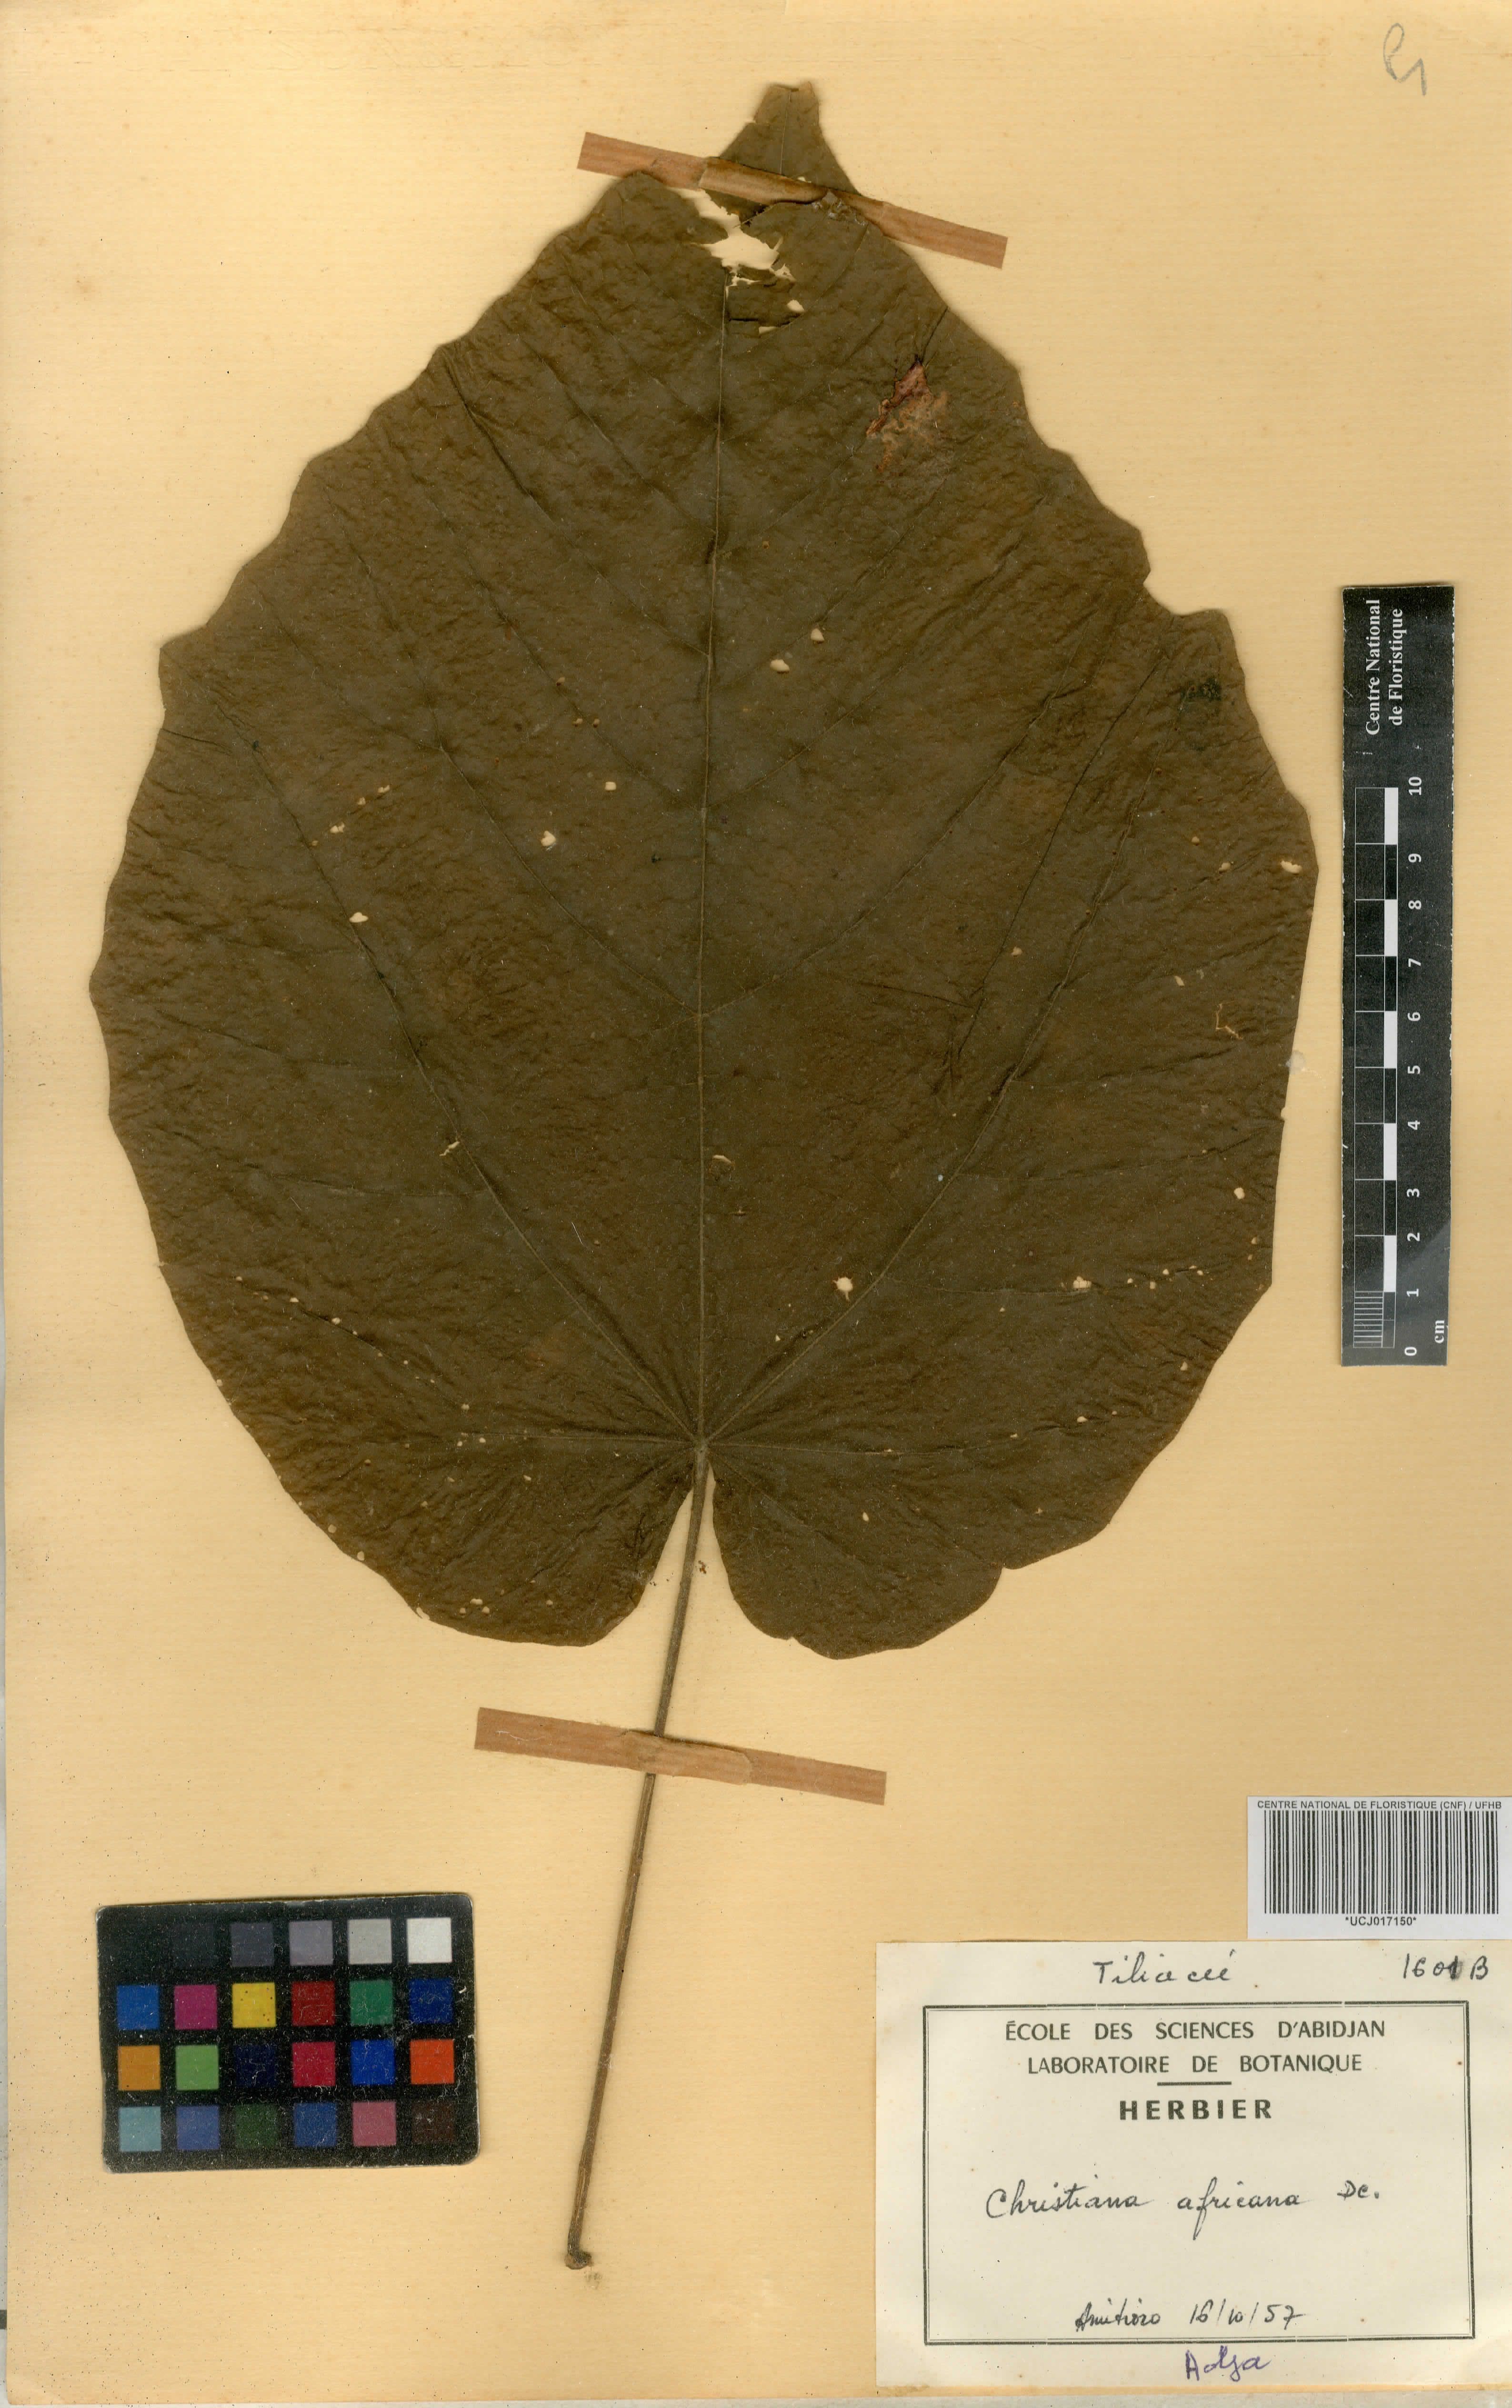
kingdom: Plantae
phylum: Tracheophyta
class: Magnoliopsida
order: Malvales
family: Malvaceae
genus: Christiana
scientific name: Christiana africana
